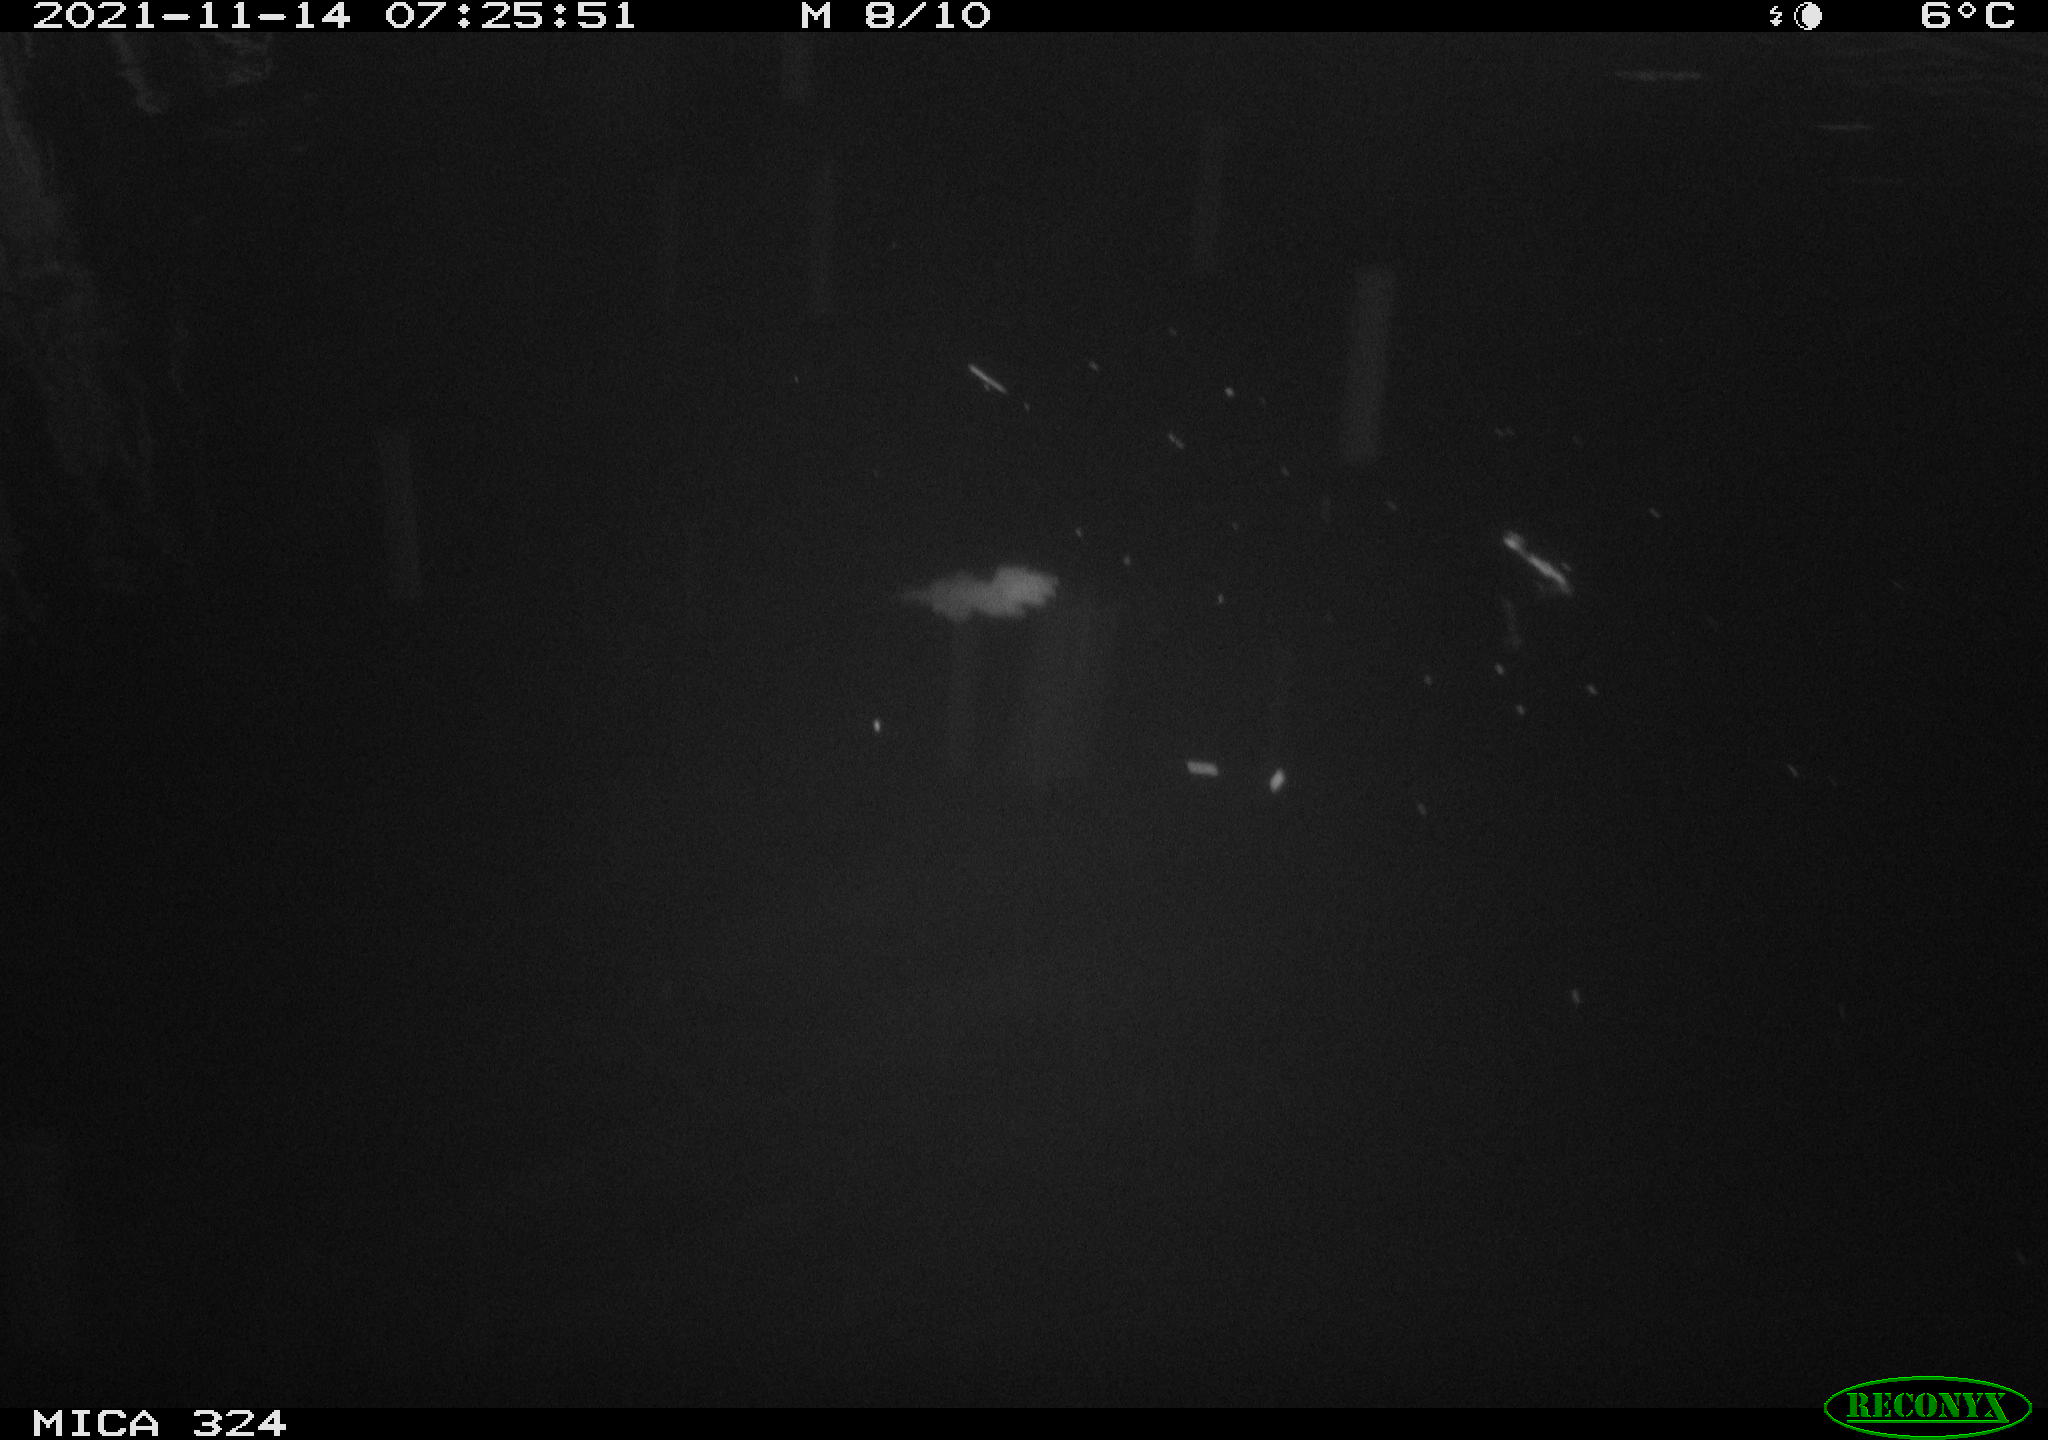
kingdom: Animalia
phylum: Chordata
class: Mammalia
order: Rodentia
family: Cricetidae
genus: Ondatra
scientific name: Ondatra zibethicus
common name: Muskrat
